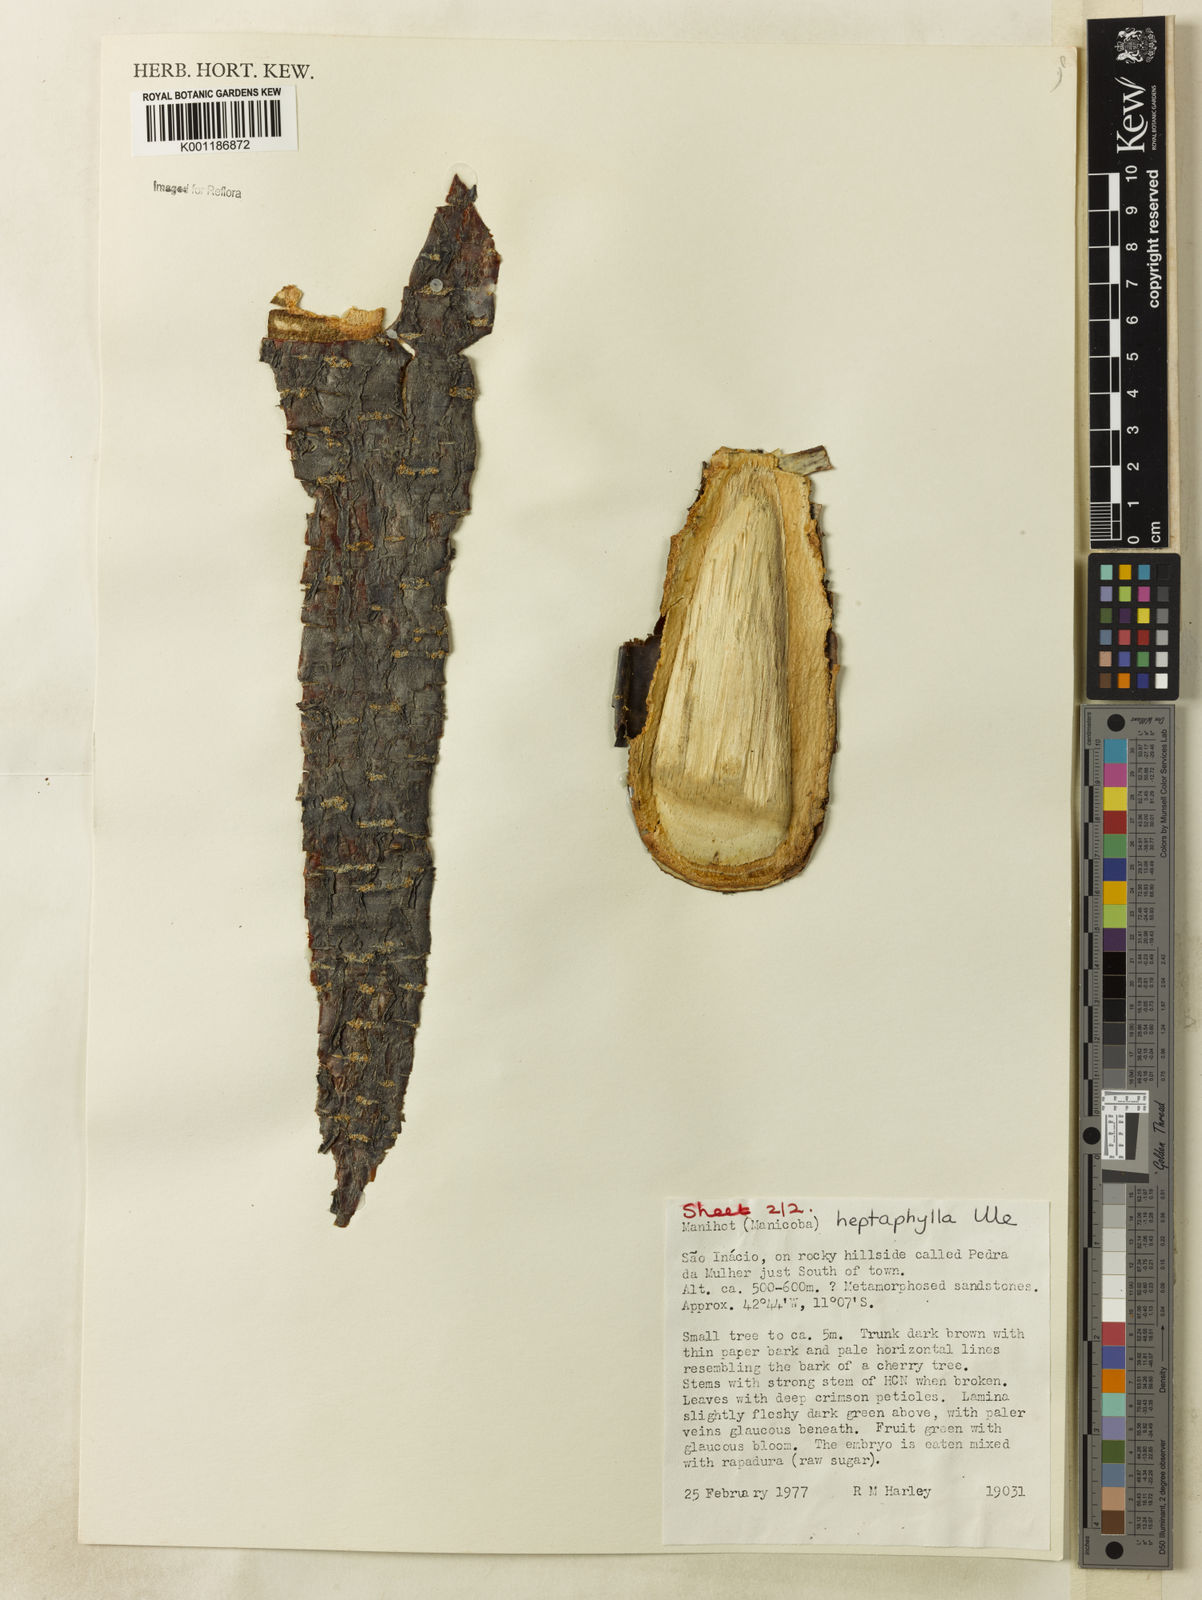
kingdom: Plantae
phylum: Tracheophyta
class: Magnoliopsida
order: Malpighiales
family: Euphorbiaceae
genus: Manihot
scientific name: Manihot heptaphylla
